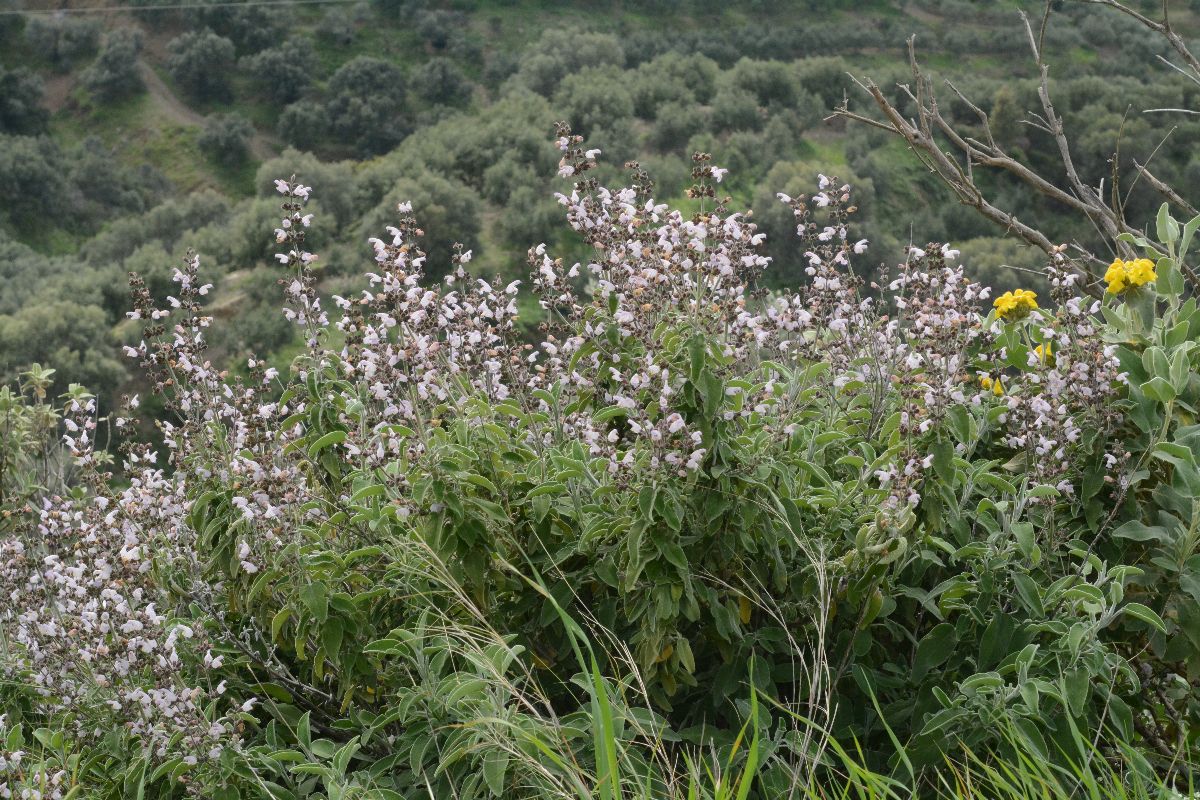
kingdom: Plantae
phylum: Tracheophyta
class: Magnoliopsida
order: Lamiales
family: Lamiaceae
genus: Salvia
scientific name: Salvia fruticosa
